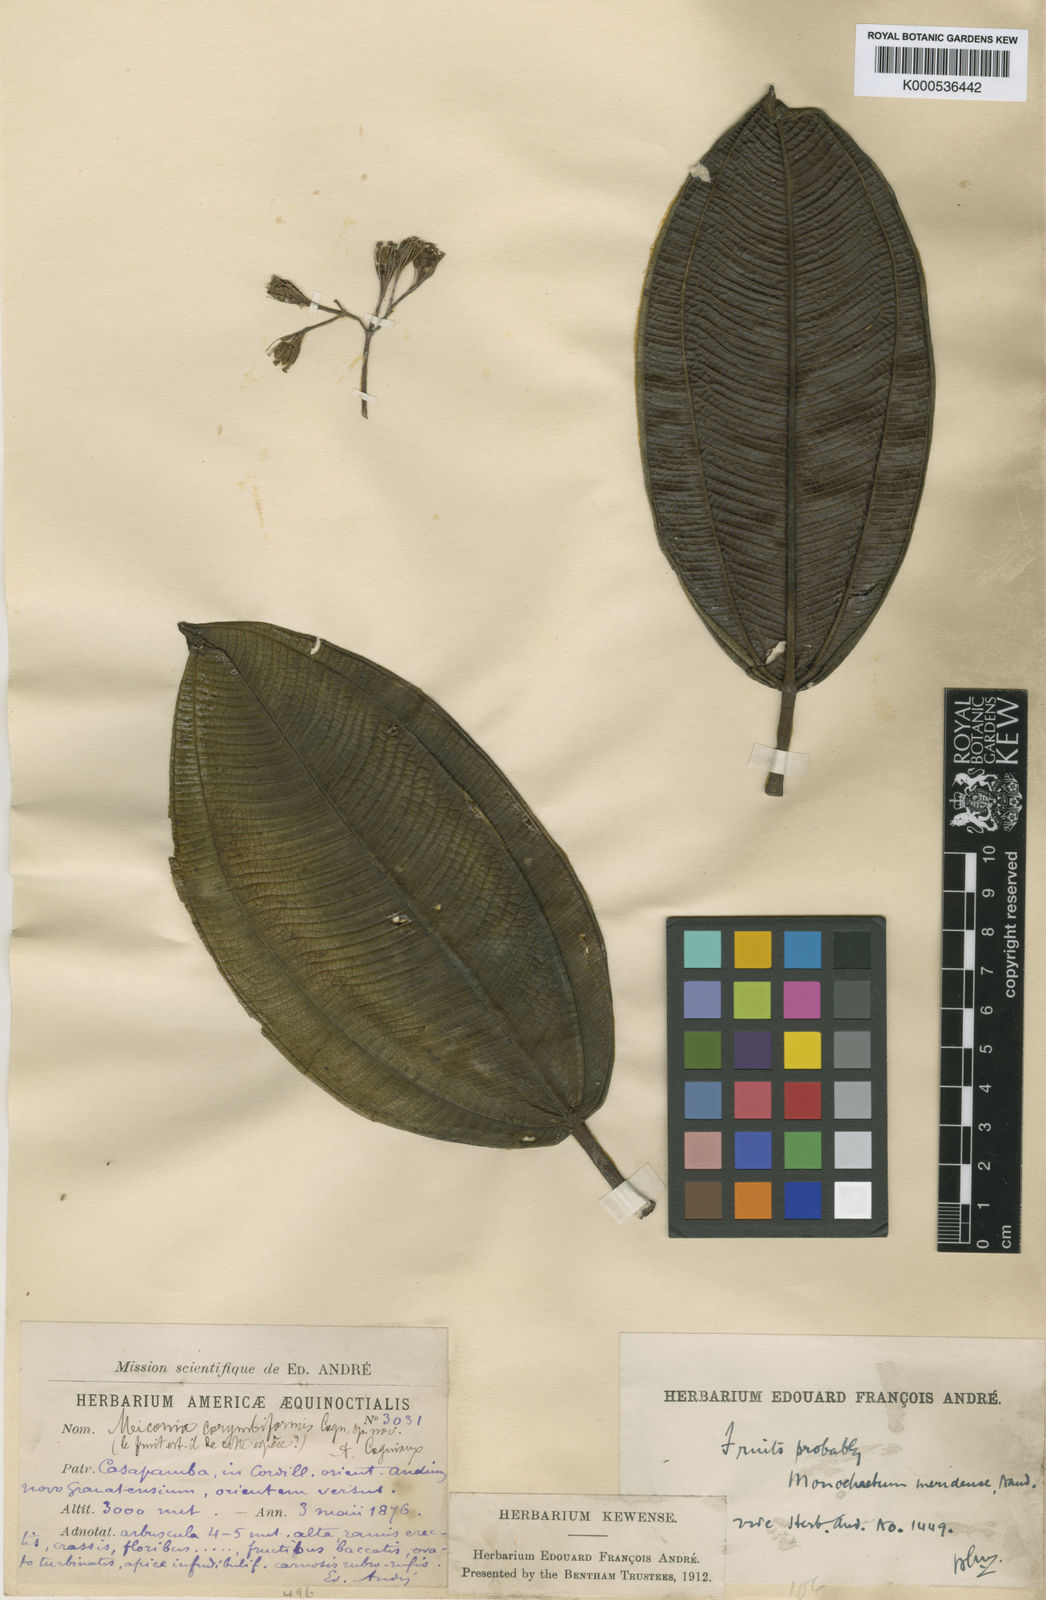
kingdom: Plantae
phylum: Tracheophyta
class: Magnoliopsida
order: Myrtales
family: Melastomataceae
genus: Miconia
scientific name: Miconia corymbiformis
